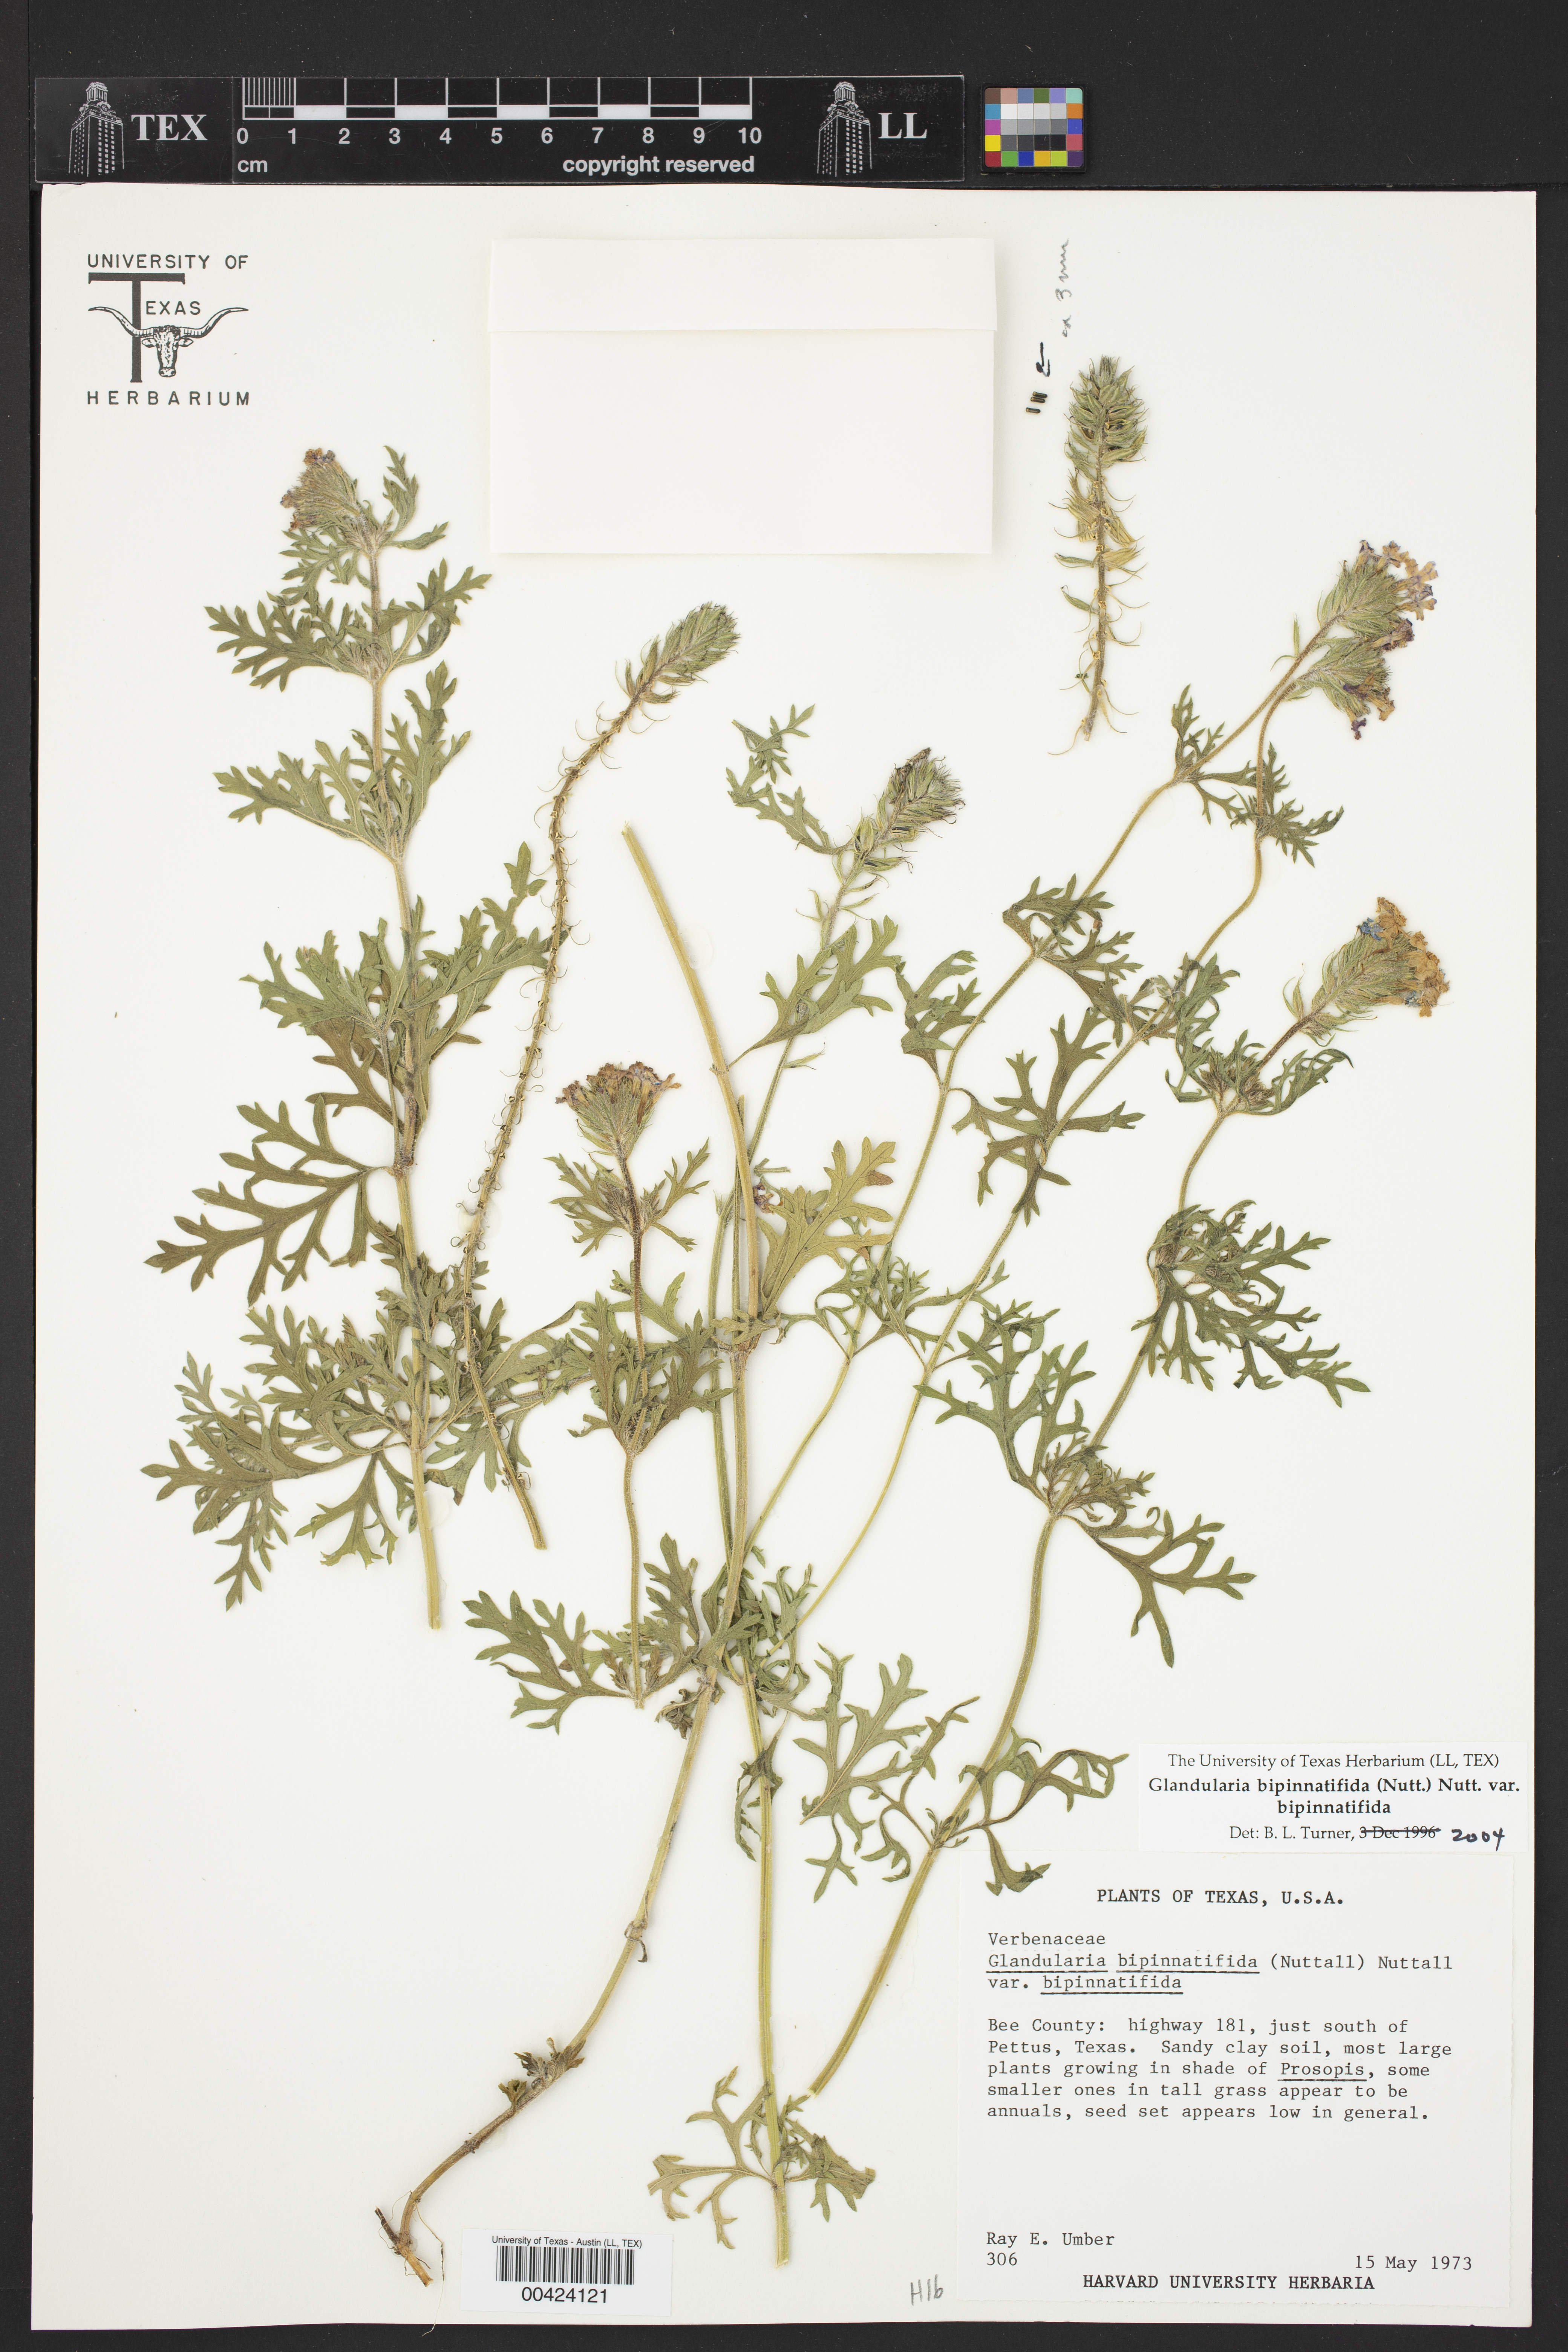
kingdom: Plantae
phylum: Tracheophyta
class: Magnoliopsida
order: Lamiales
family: Verbenaceae
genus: Verbena
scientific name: Verbena bipinnatifida
